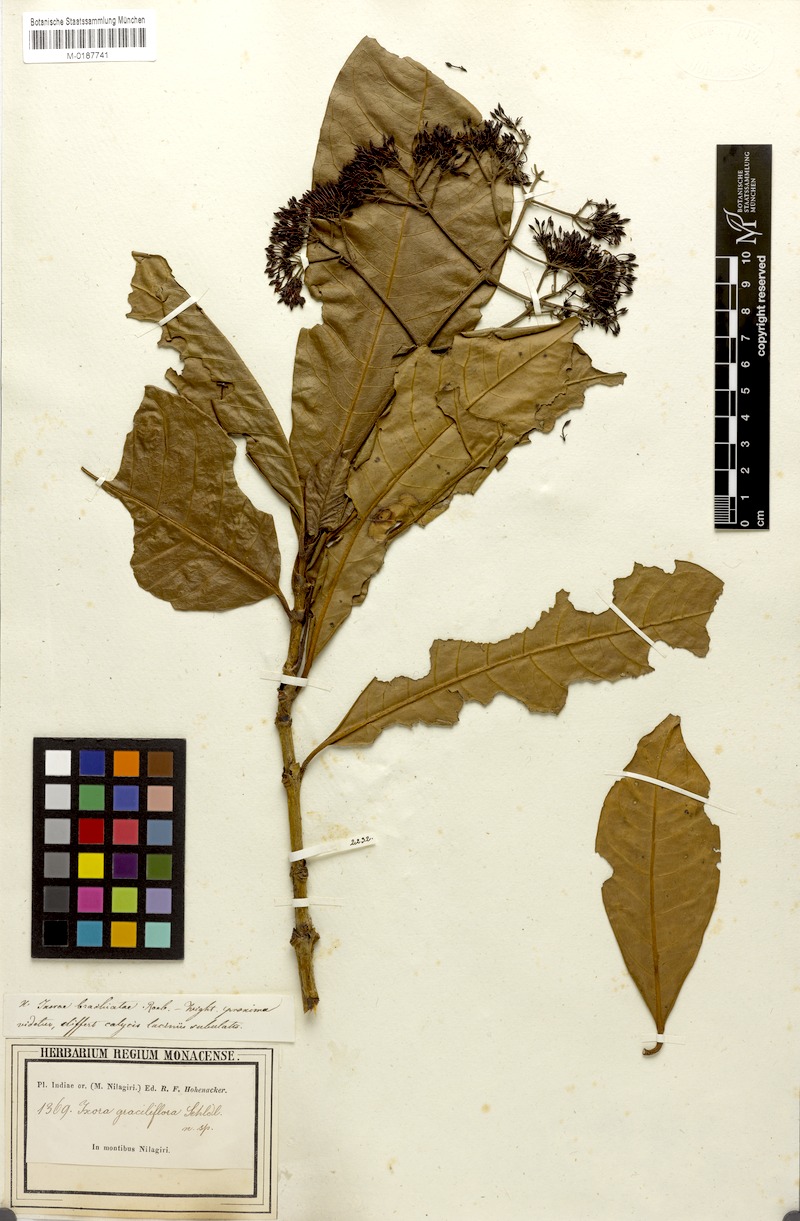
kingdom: Plantae
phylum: Tracheophyta
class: Magnoliopsida
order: Gentianales
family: Rubiaceae
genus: Ixora
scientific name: Ixora
